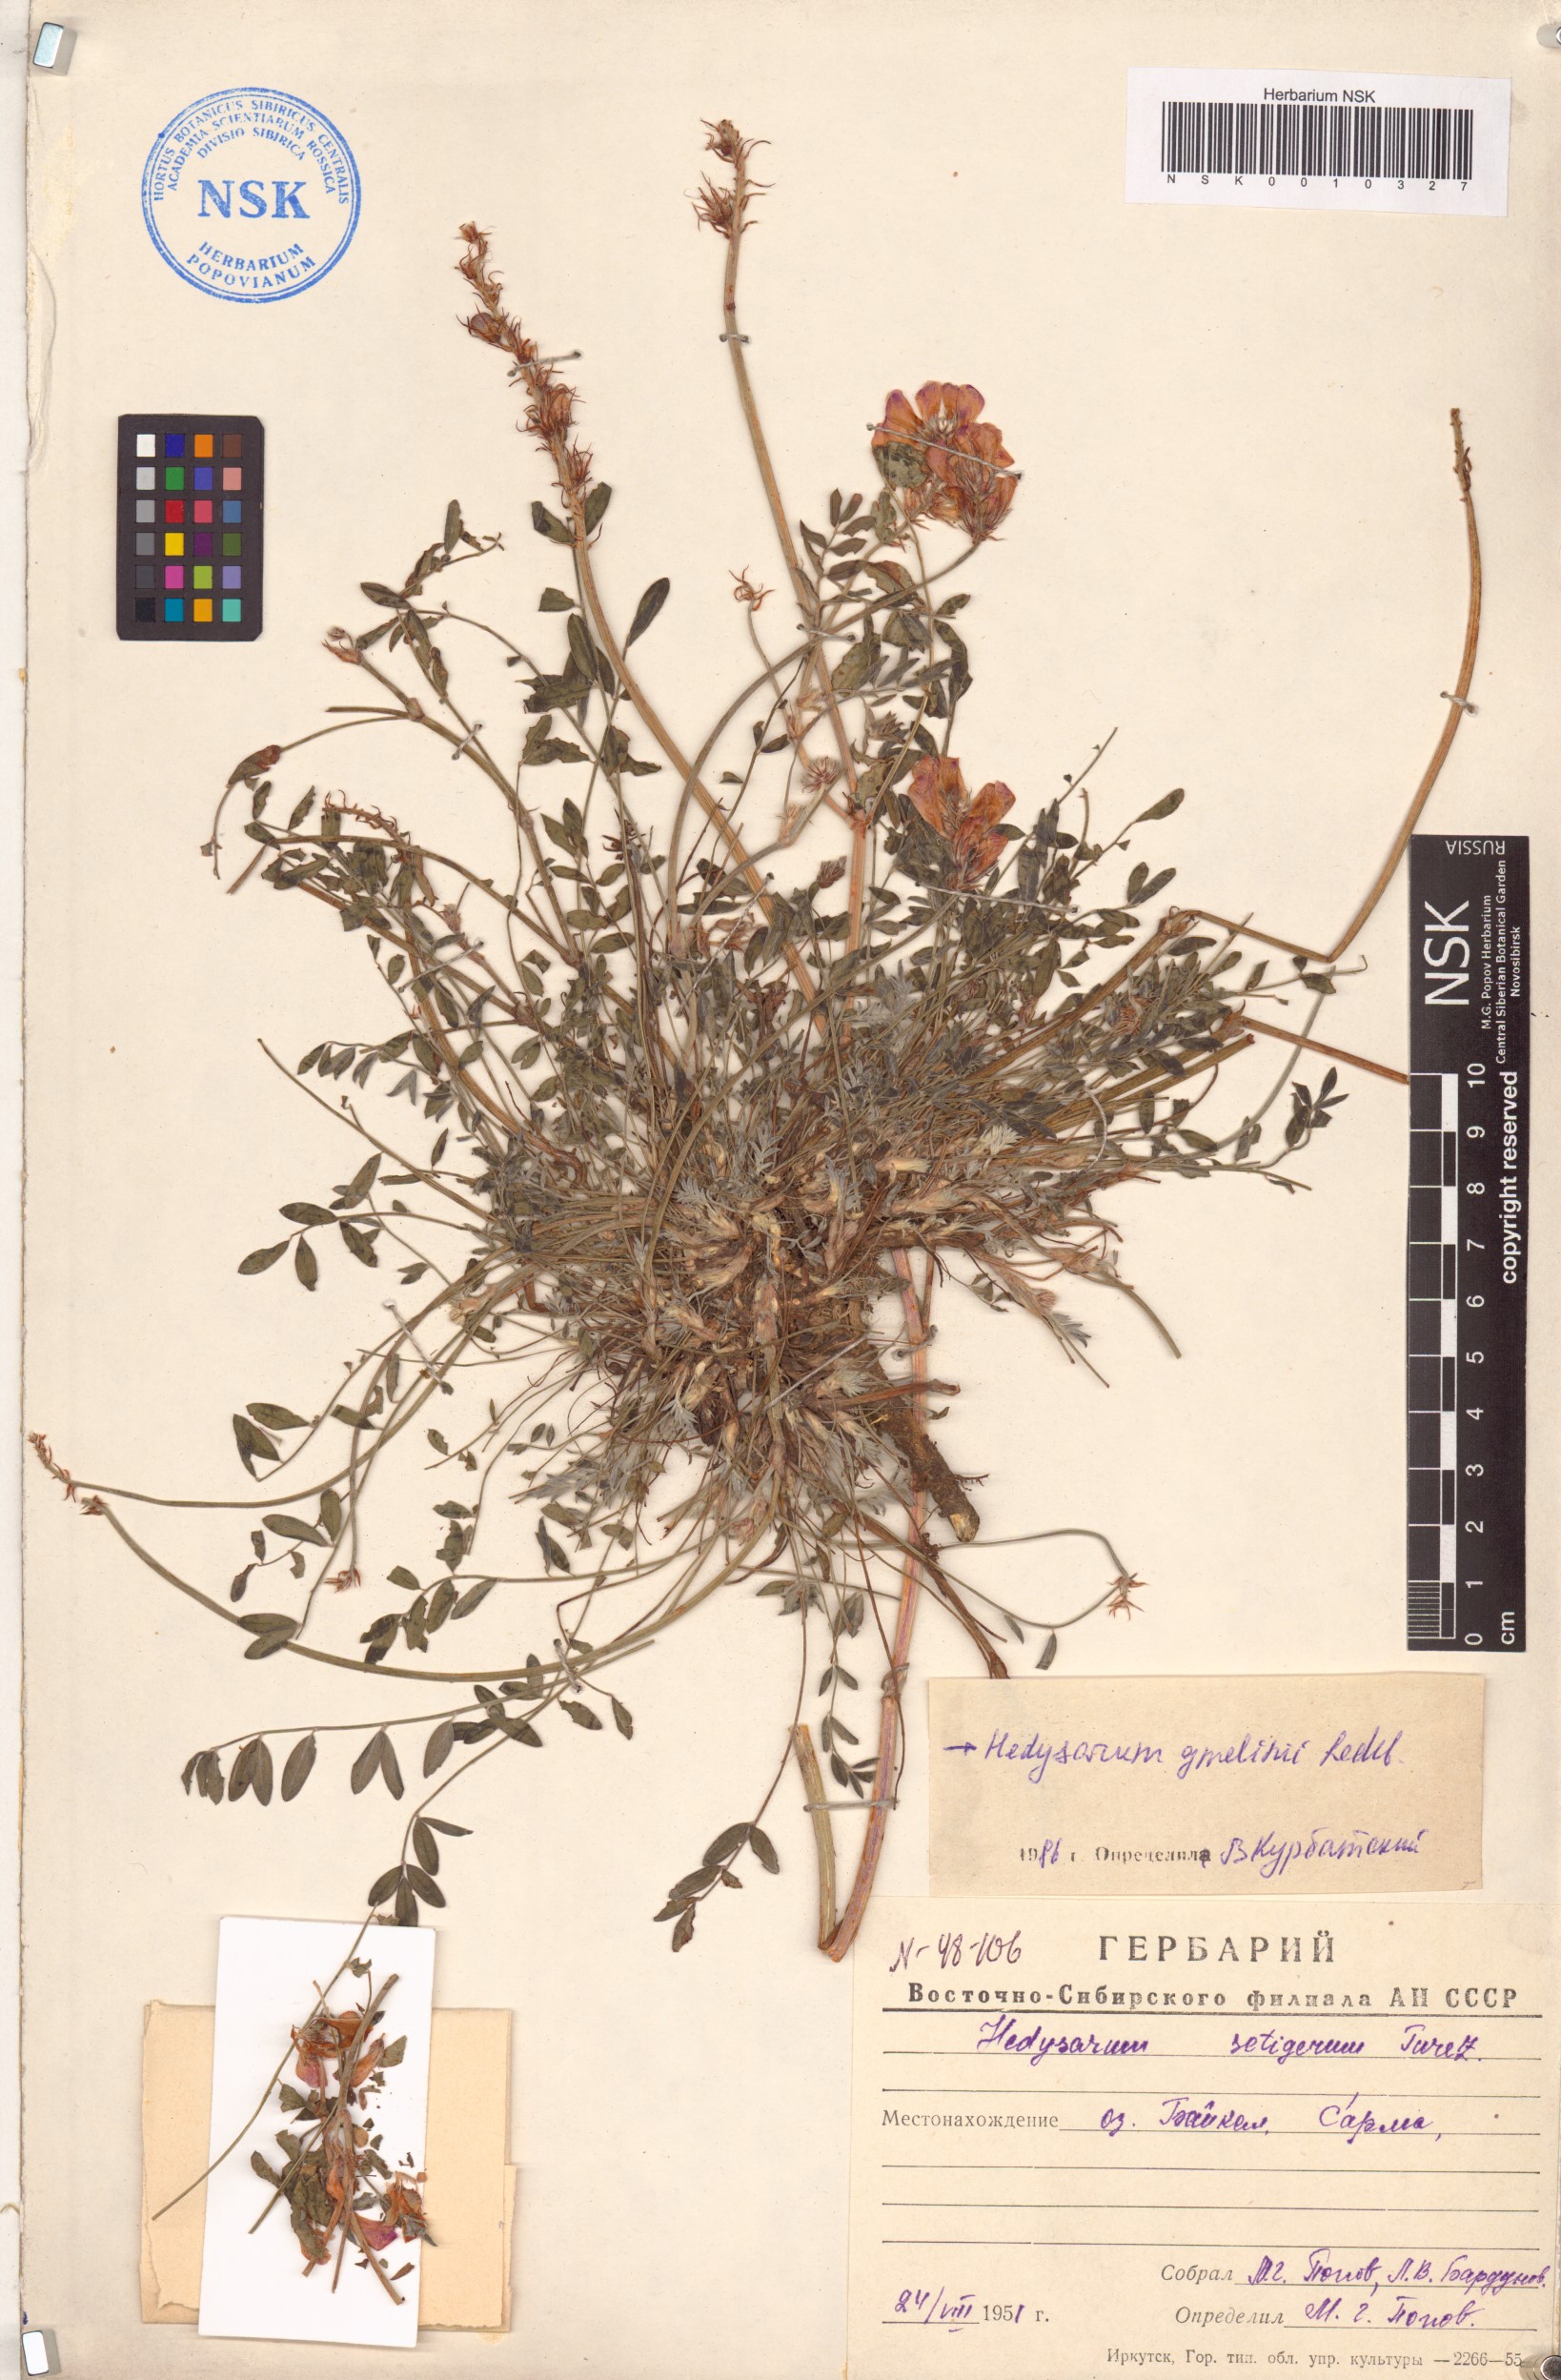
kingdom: Plantae
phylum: Tracheophyta
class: Magnoliopsida
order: Fabales
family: Fabaceae
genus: Hedysarum
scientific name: Hedysarum gmelinii
